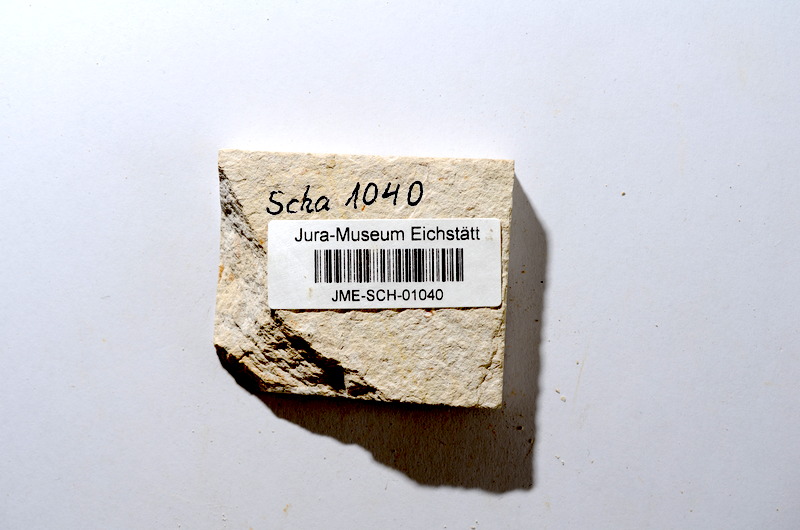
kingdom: Animalia
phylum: Chordata
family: Ascalaboidae
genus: Tharsis
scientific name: Tharsis dubius
